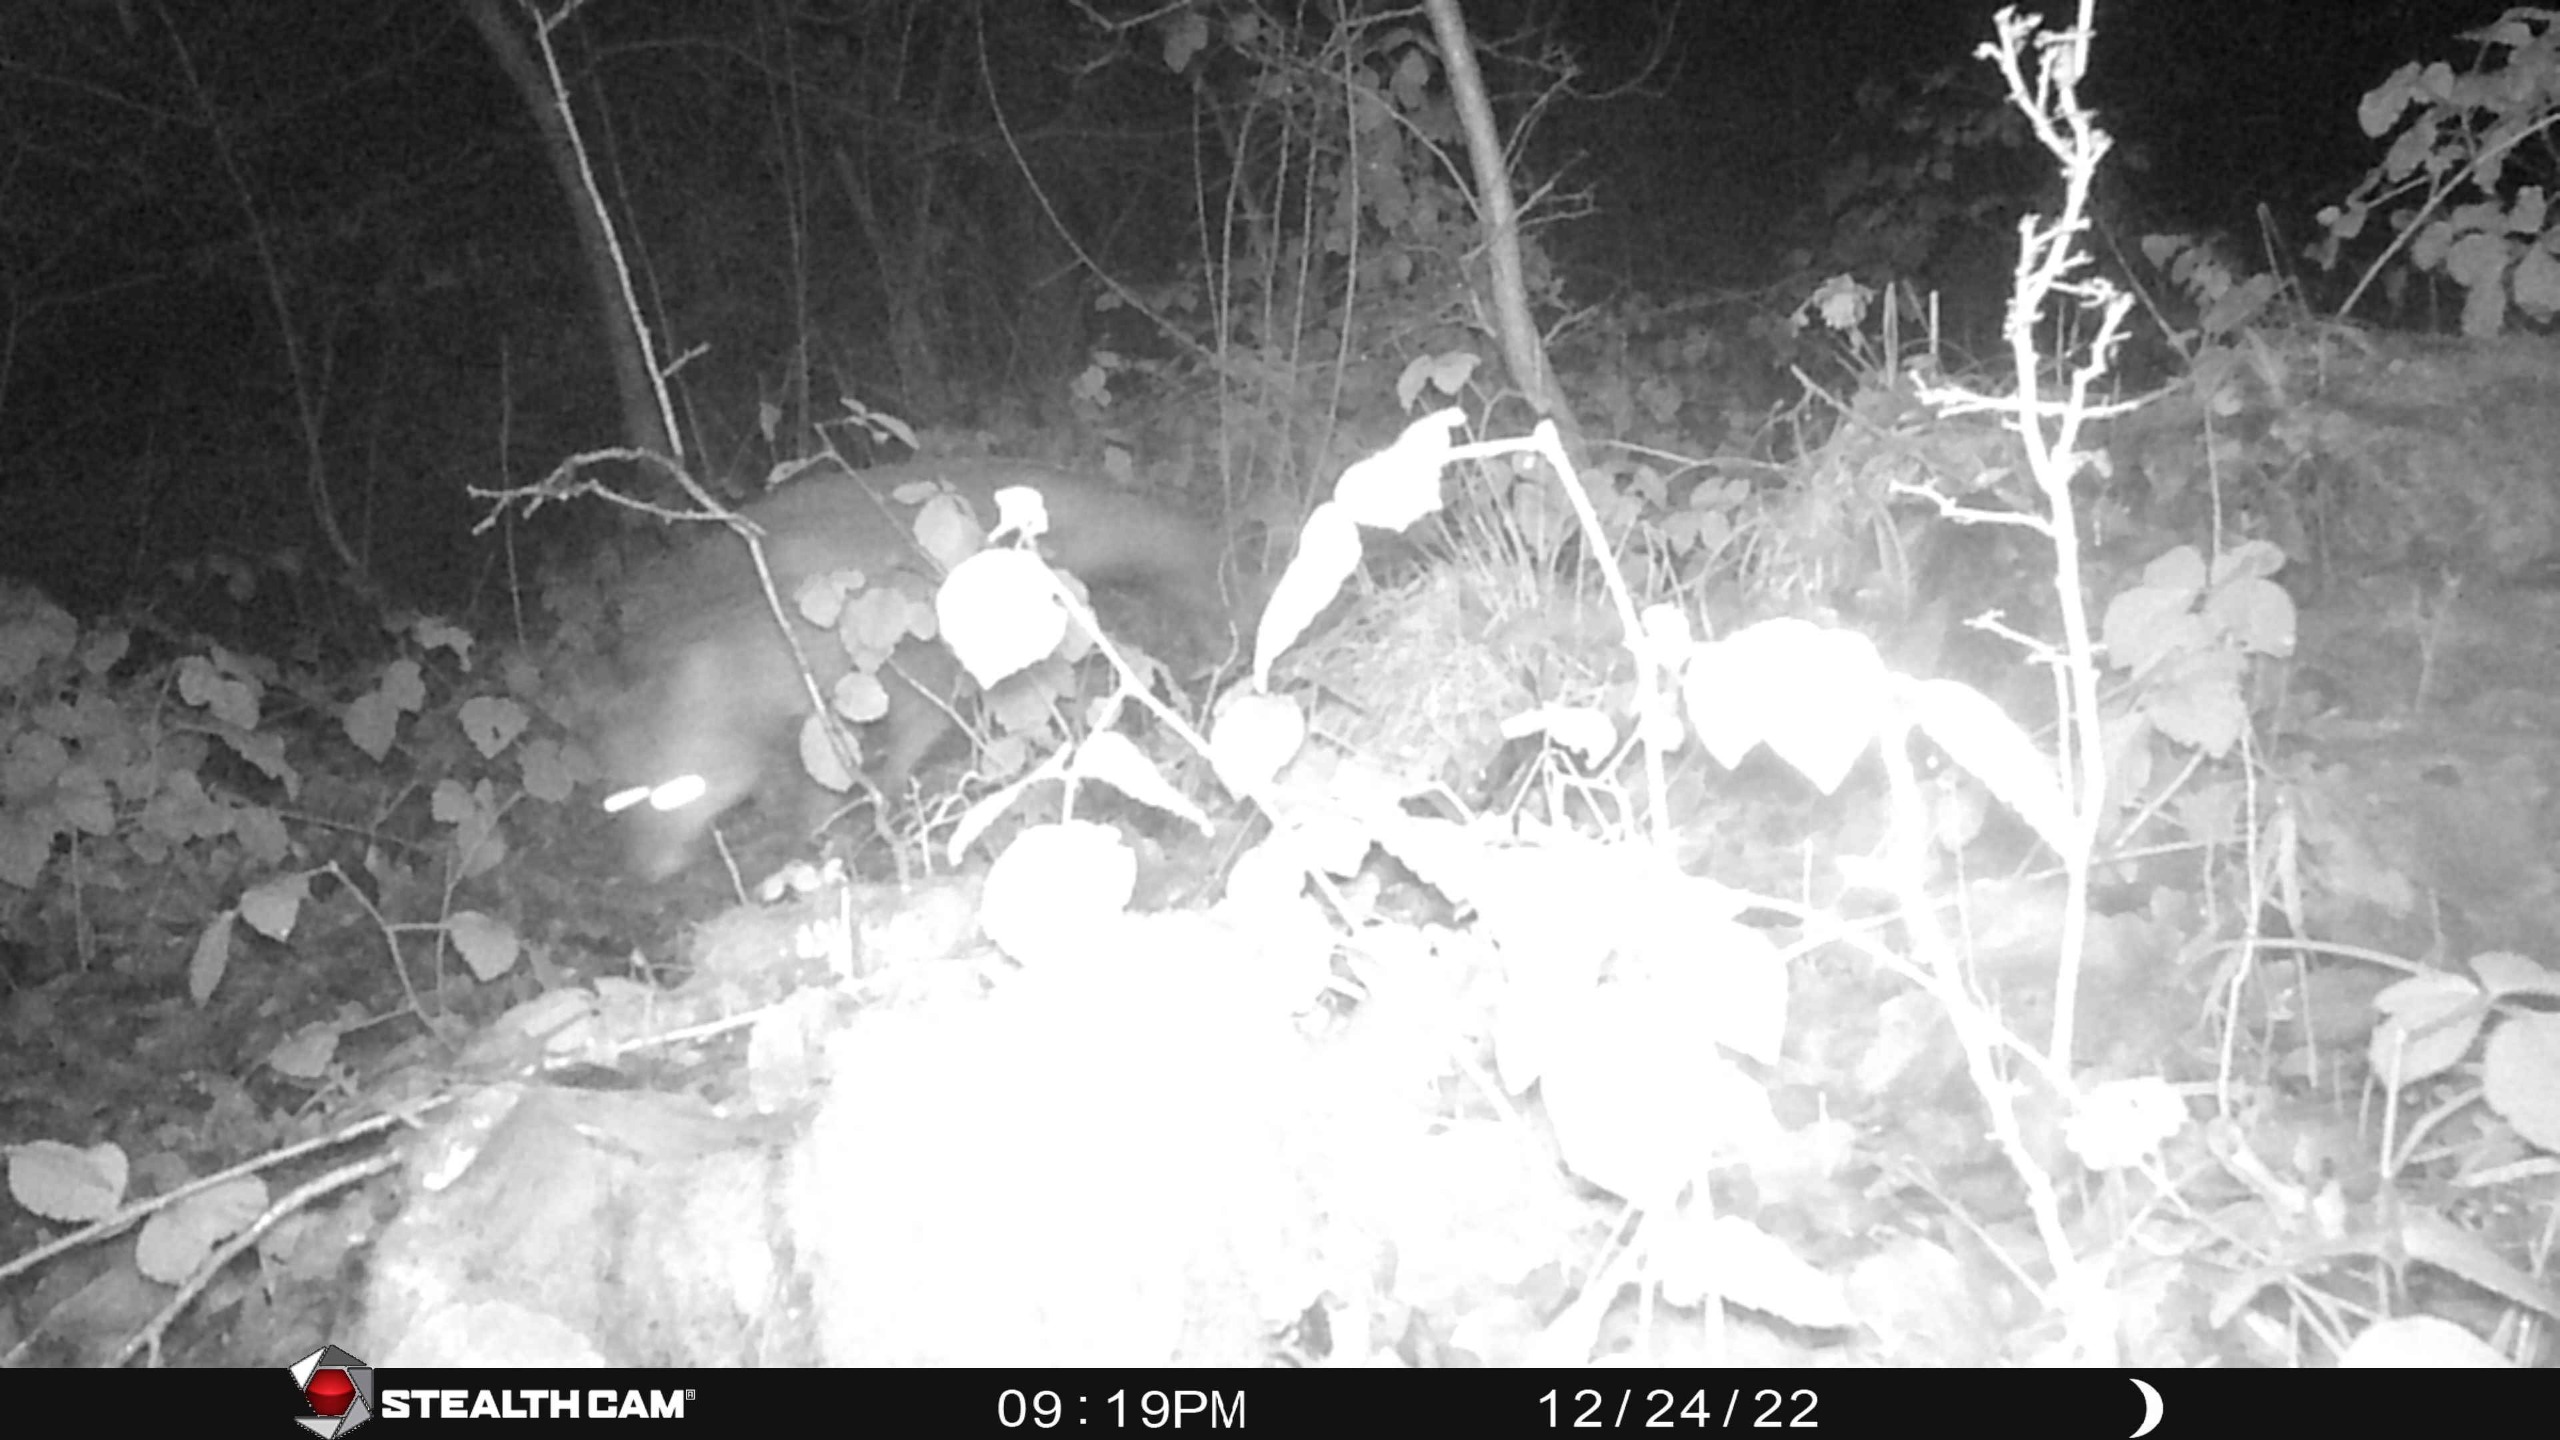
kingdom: Animalia
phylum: Chordata
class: Mammalia
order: Carnivora
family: Canidae
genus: Vulpes
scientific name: Vulpes vulpes
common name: Ræv
